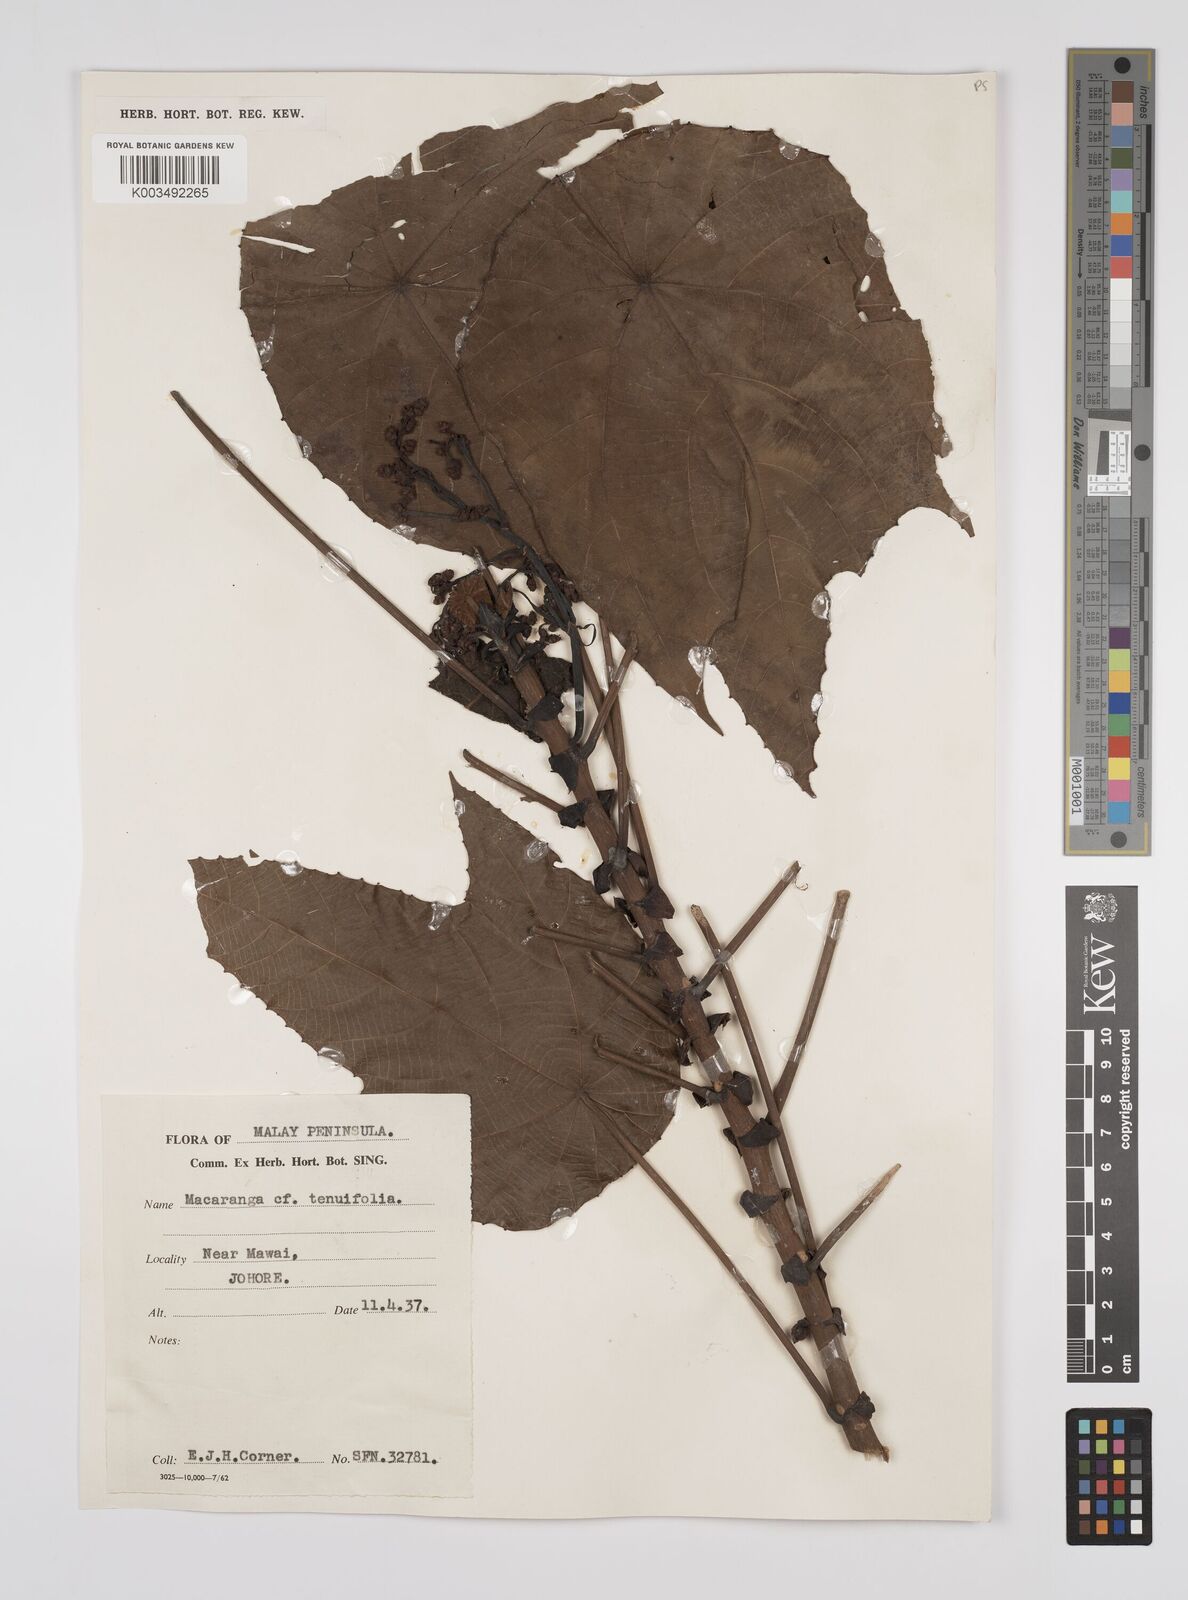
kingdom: Plantae
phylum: Tracheophyta
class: Magnoliopsida
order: Malpighiales
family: Euphorbiaceae
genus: Macaranga
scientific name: Macaranga triloba
